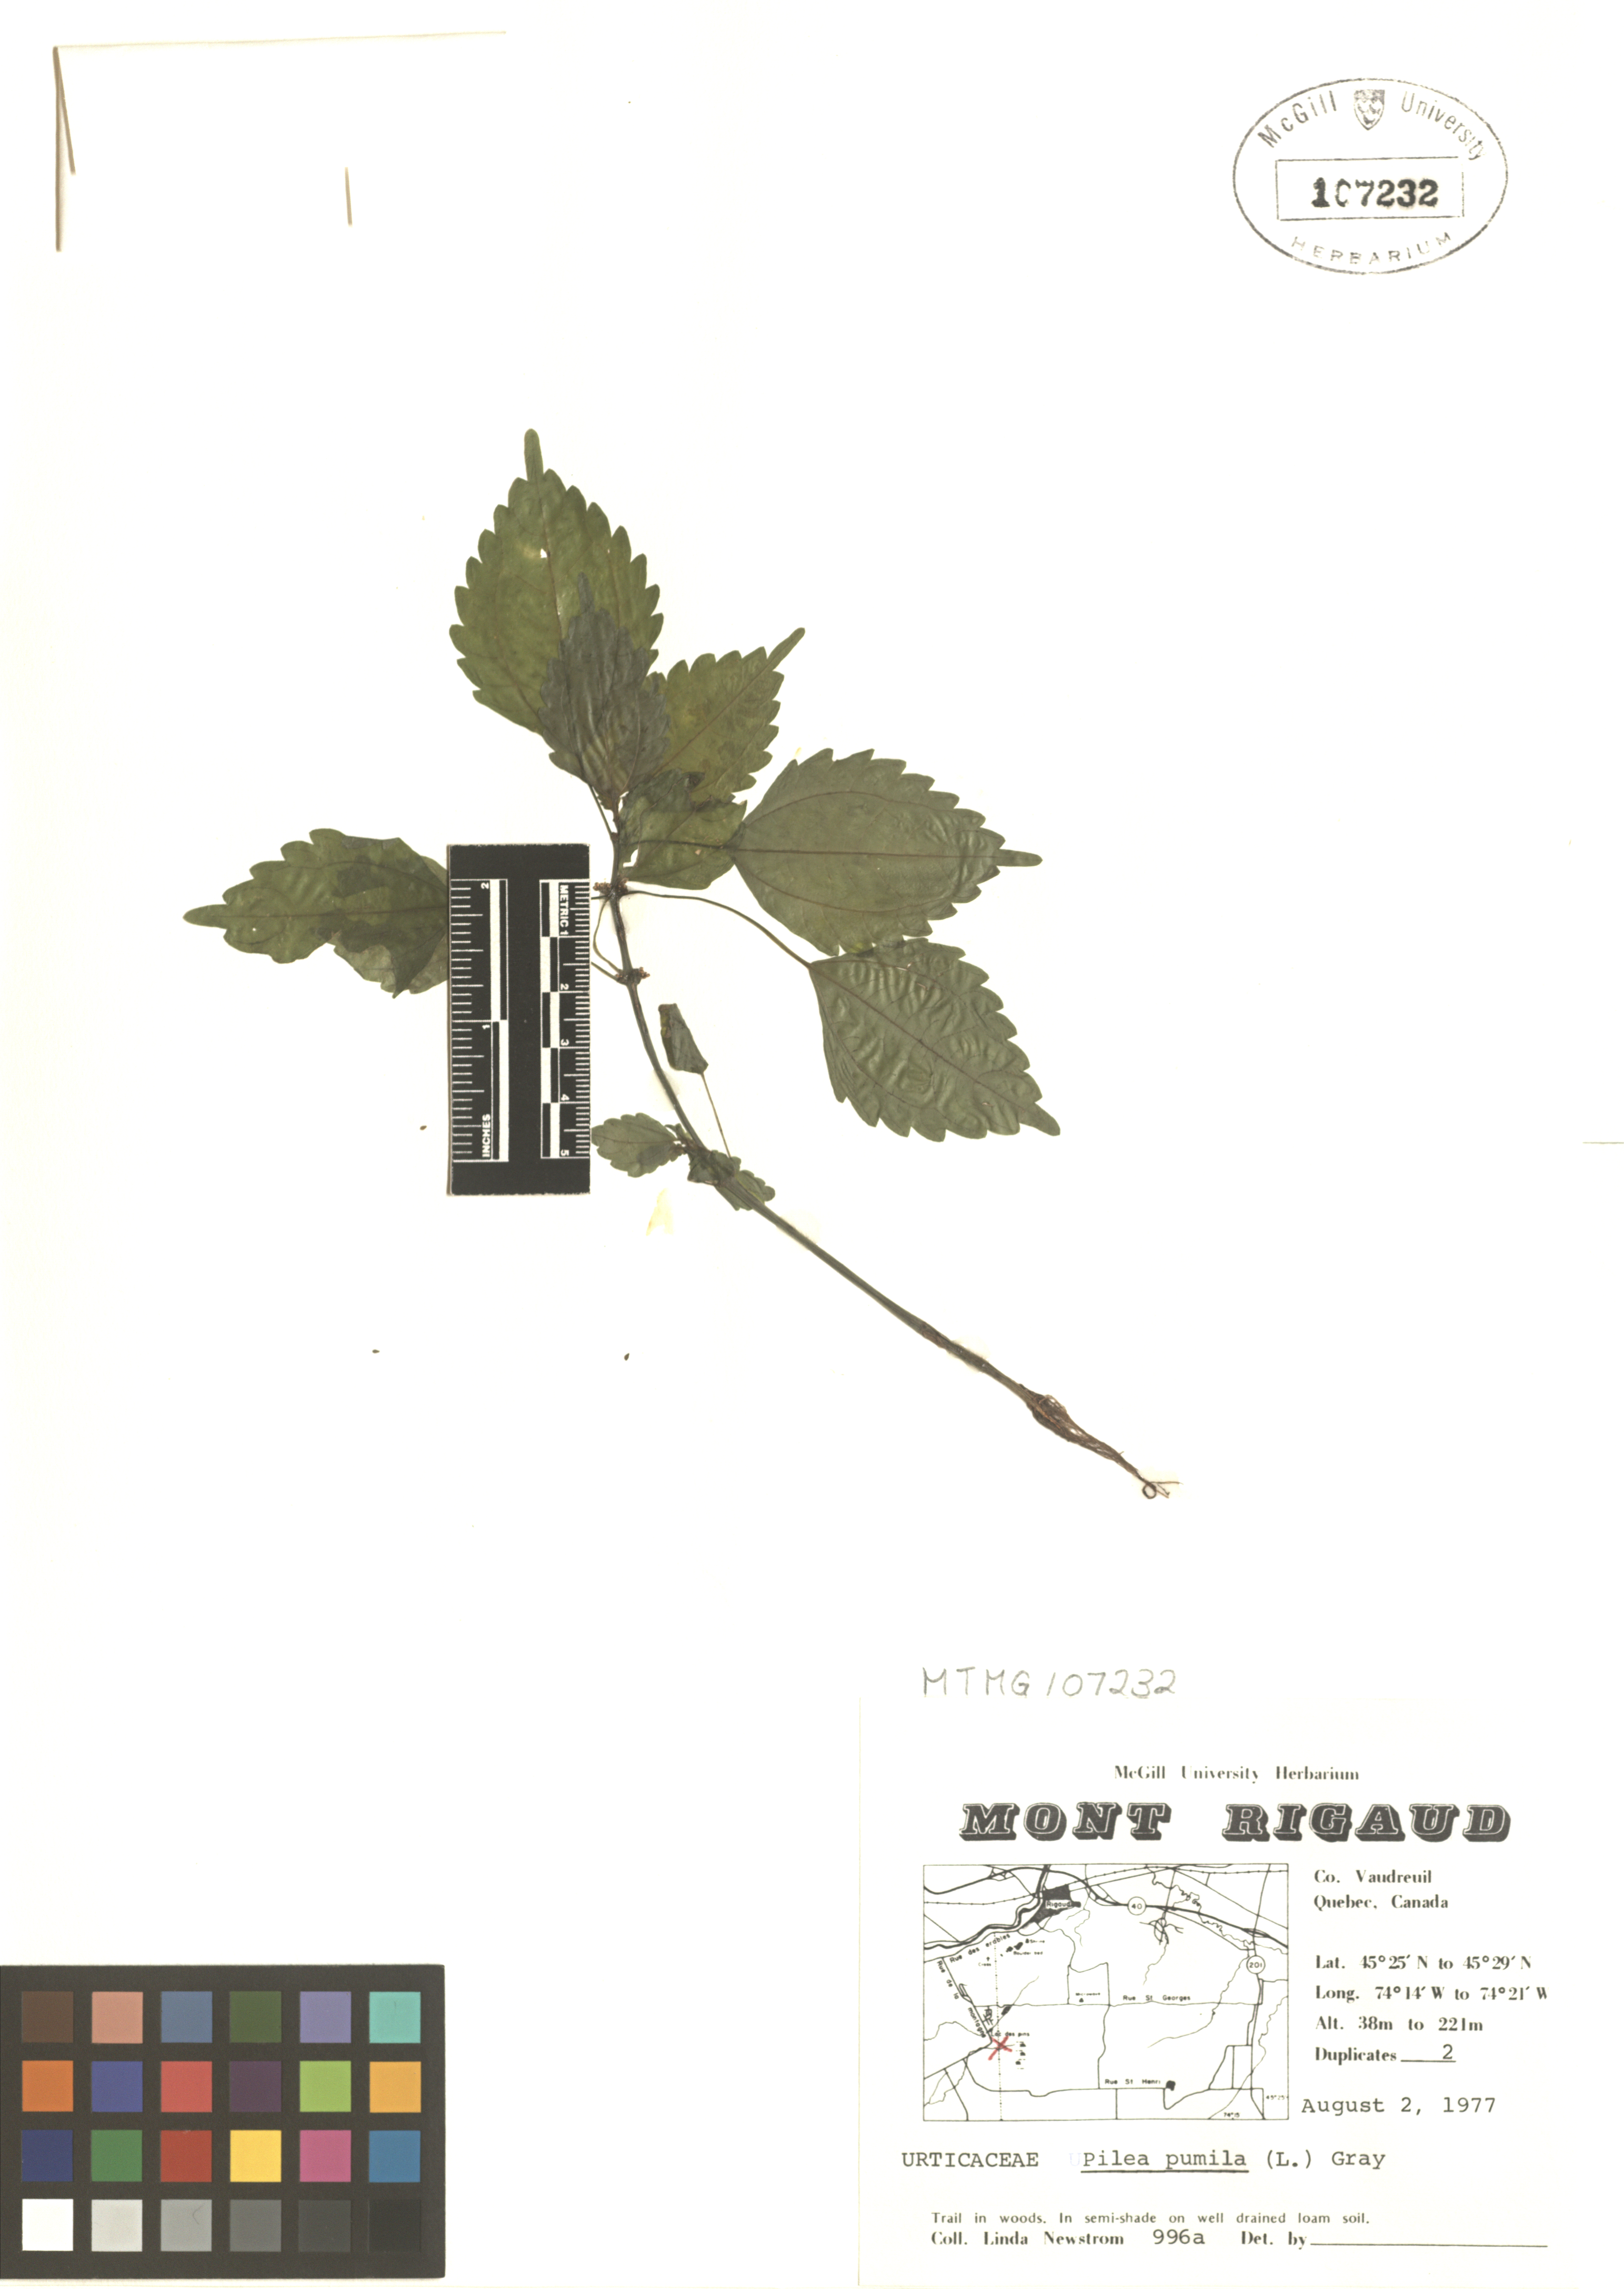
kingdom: Plantae
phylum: Tracheophyta
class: Magnoliopsida
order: Rosales
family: Urticaceae
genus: Pilea
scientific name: Pilea pumila
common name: Clearweed
